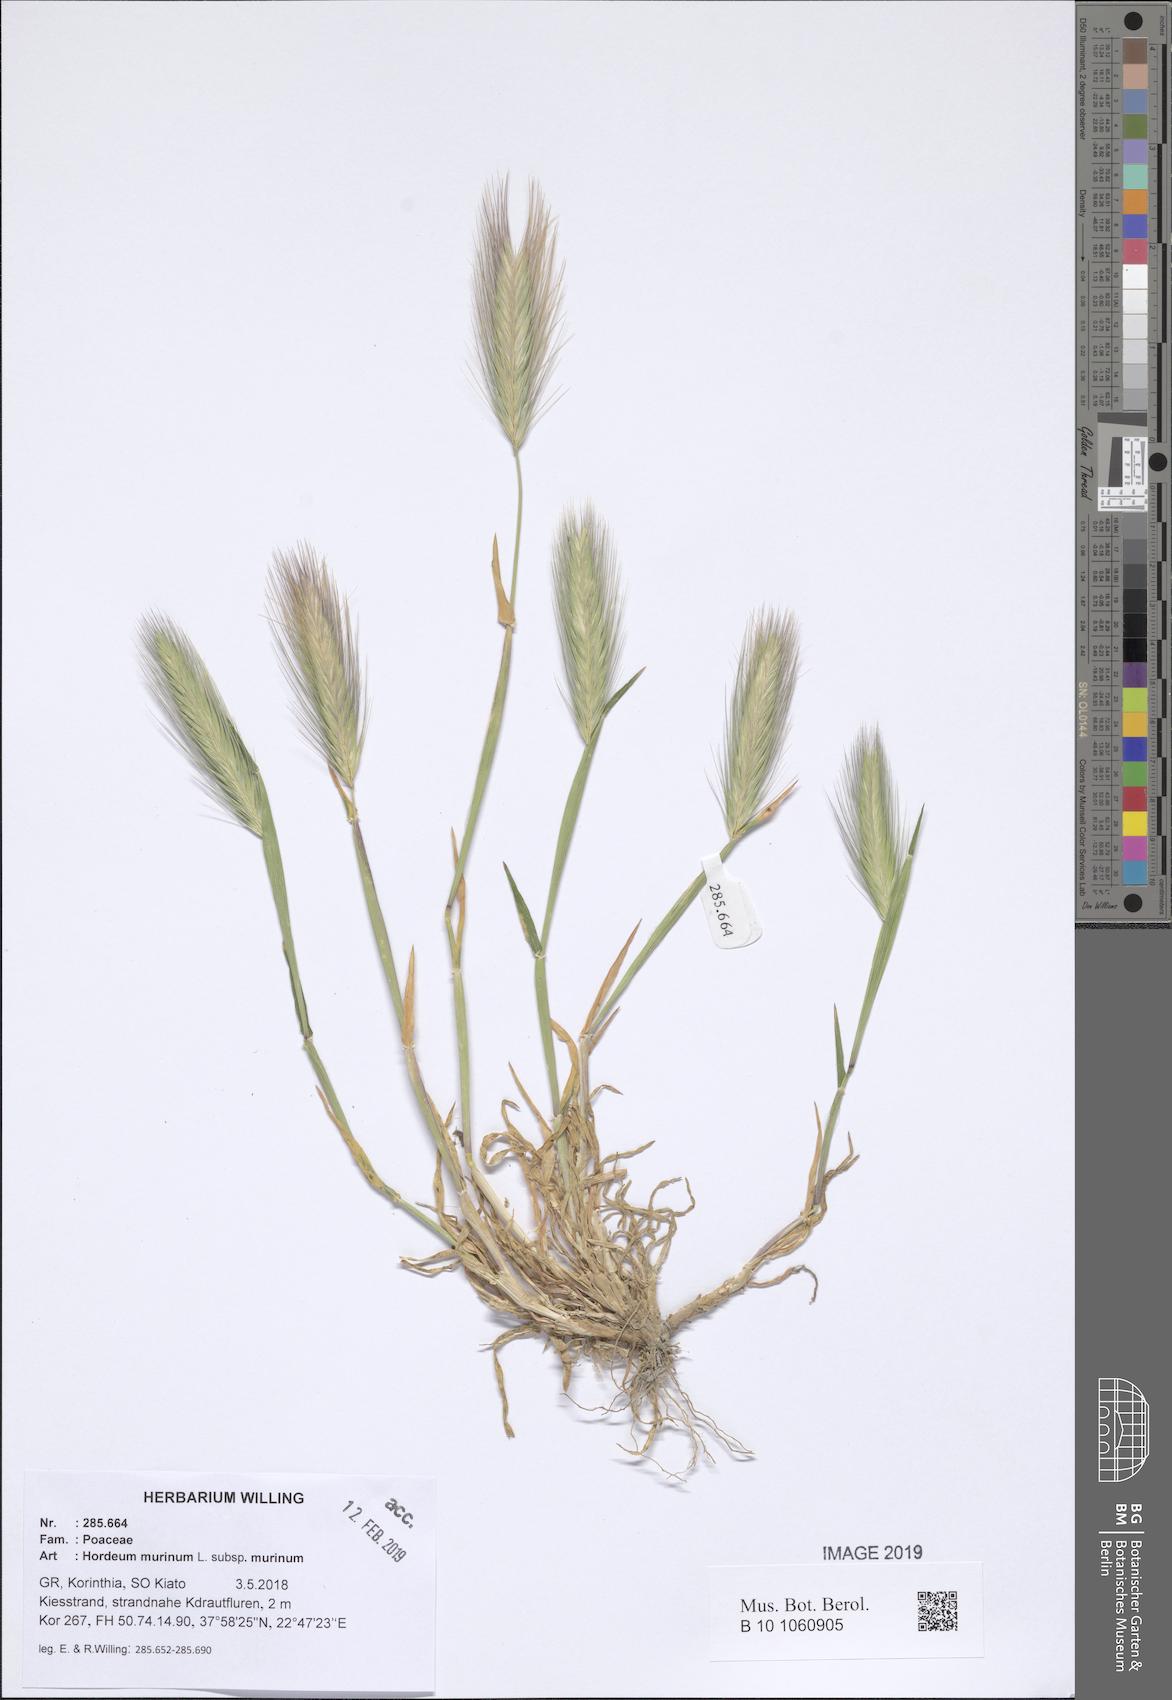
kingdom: Plantae
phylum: Tracheophyta
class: Liliopsida
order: Poales
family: Poaceae
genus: Hordeum
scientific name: Hordeum murinum
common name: Wall barley
